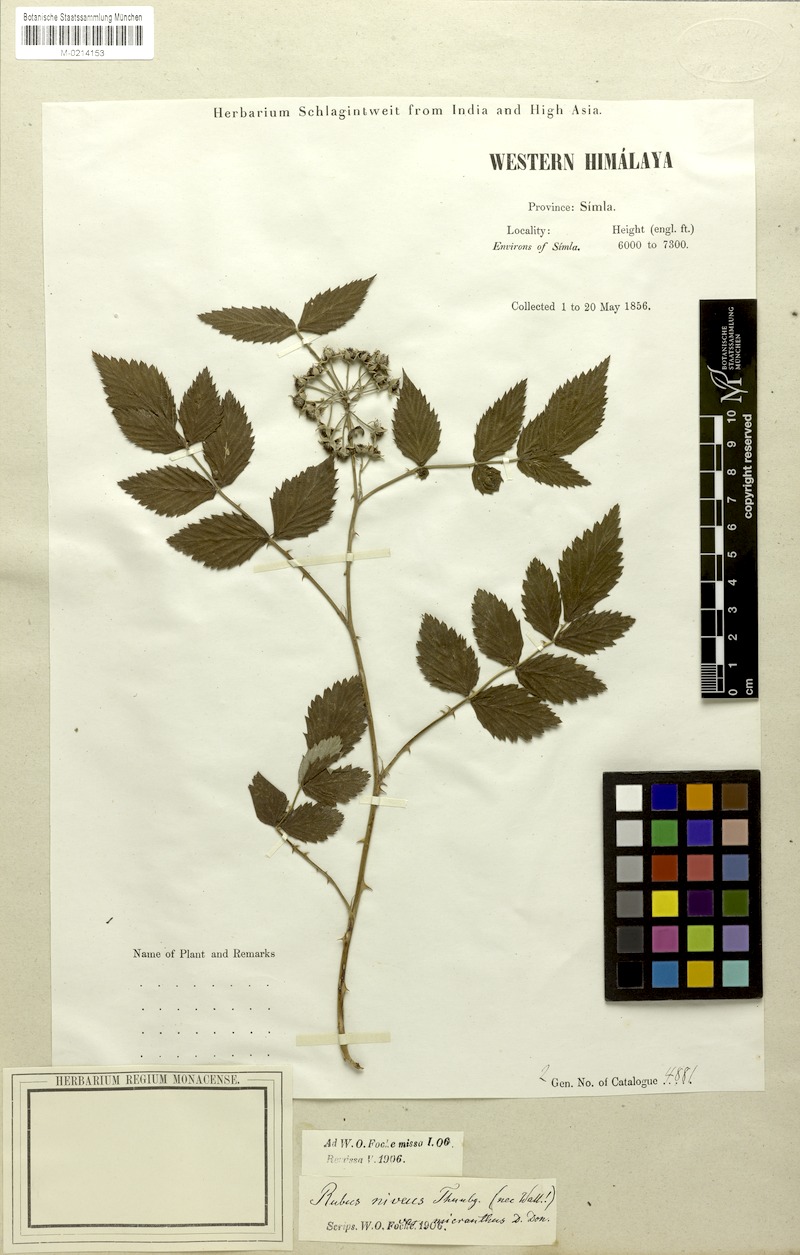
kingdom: Plantae
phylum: Tracheophyta
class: Magnoliopsida
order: Rosales
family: Rosaceae
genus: Rubus
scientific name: Rubus niveus
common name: Snowpeaks raspberry
